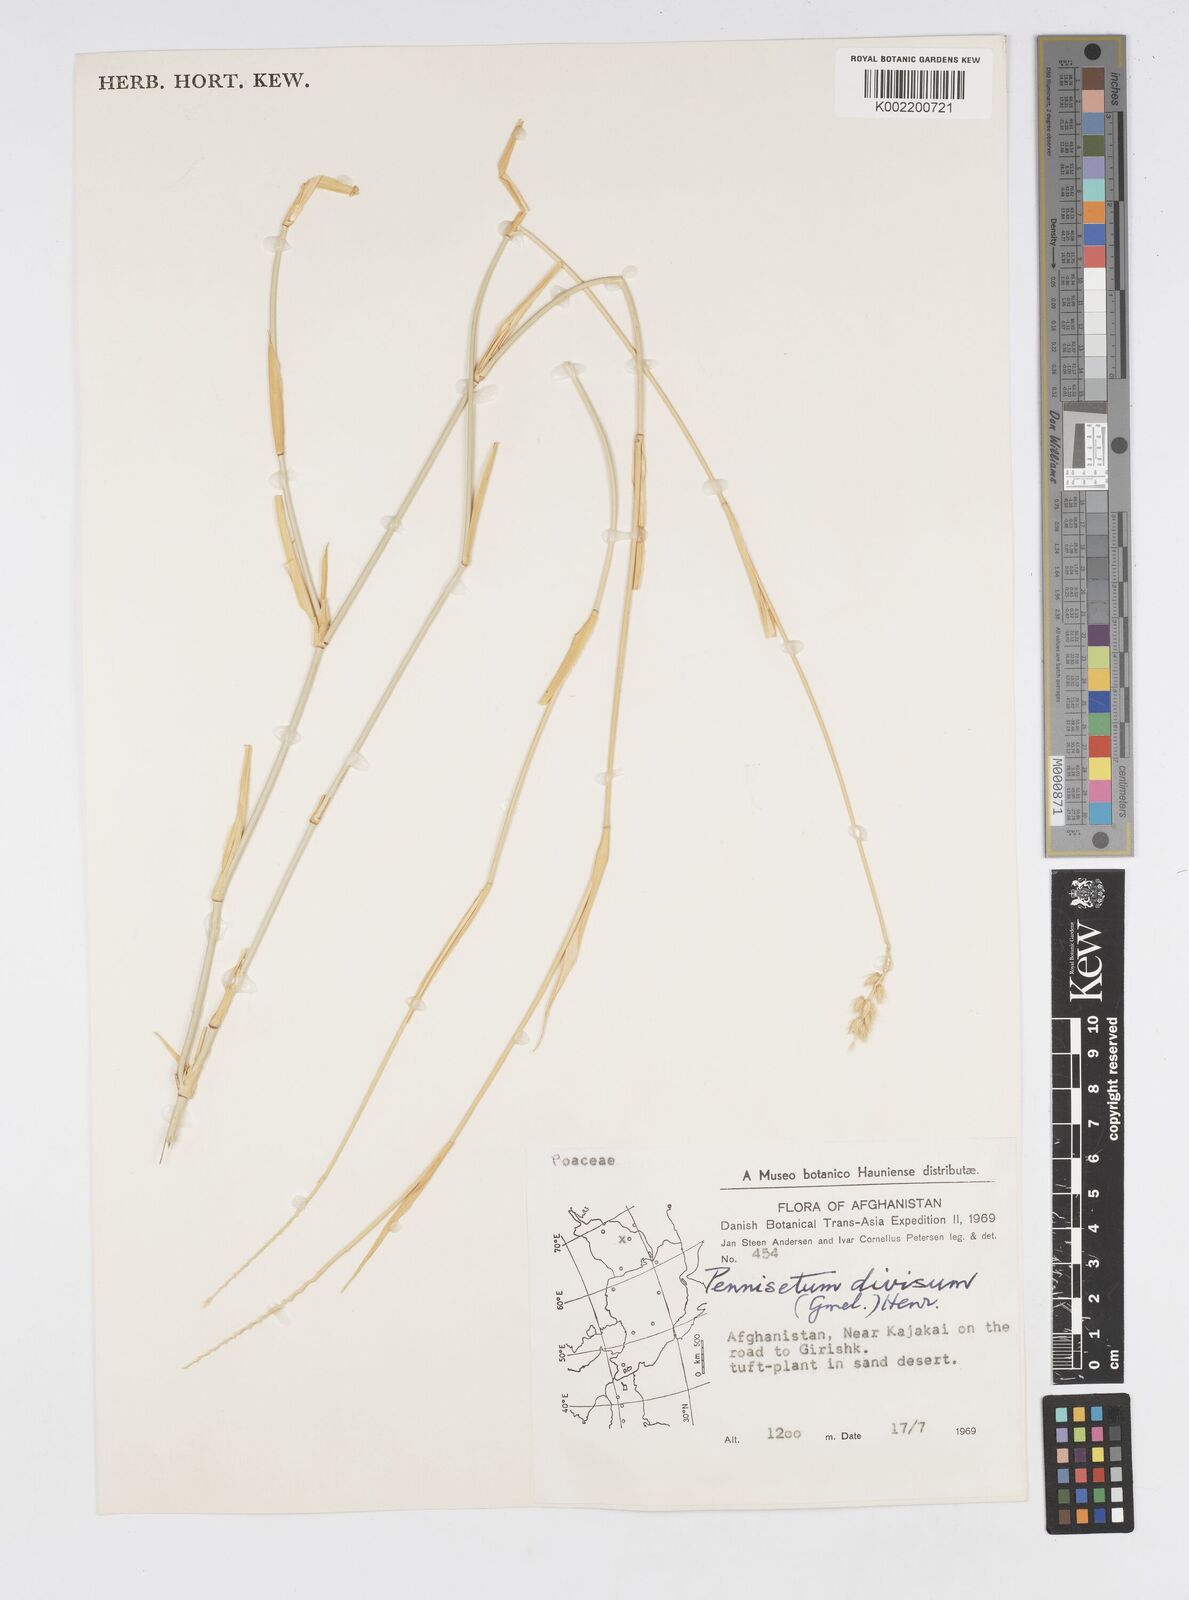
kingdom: Plantae
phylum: Tracheophyta
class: Liliopsida
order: Poales
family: Poaceae
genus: Cenchrus
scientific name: Cenchrus divisus
